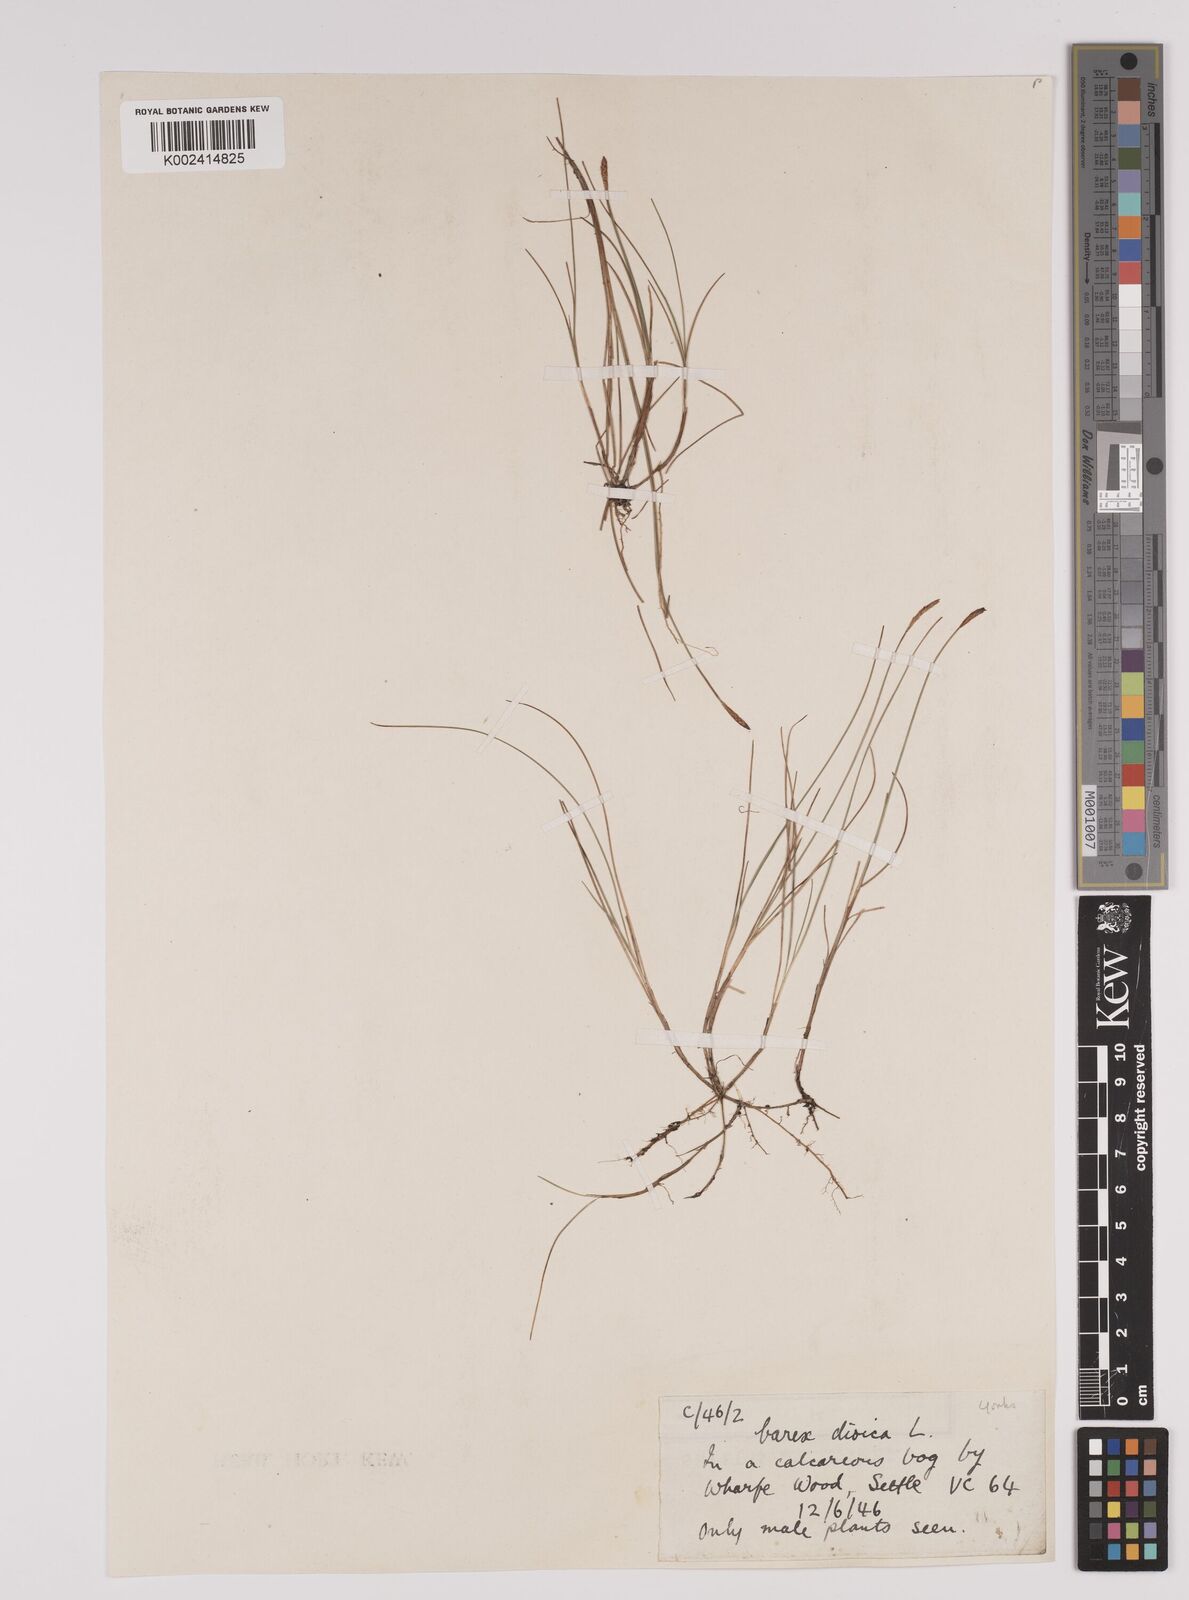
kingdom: Plantae
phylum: Tracheophyta
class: Liliopsida
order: Poales
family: Cyperaceae
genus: Carex
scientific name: Carex dioica
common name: Dioecious sedge
